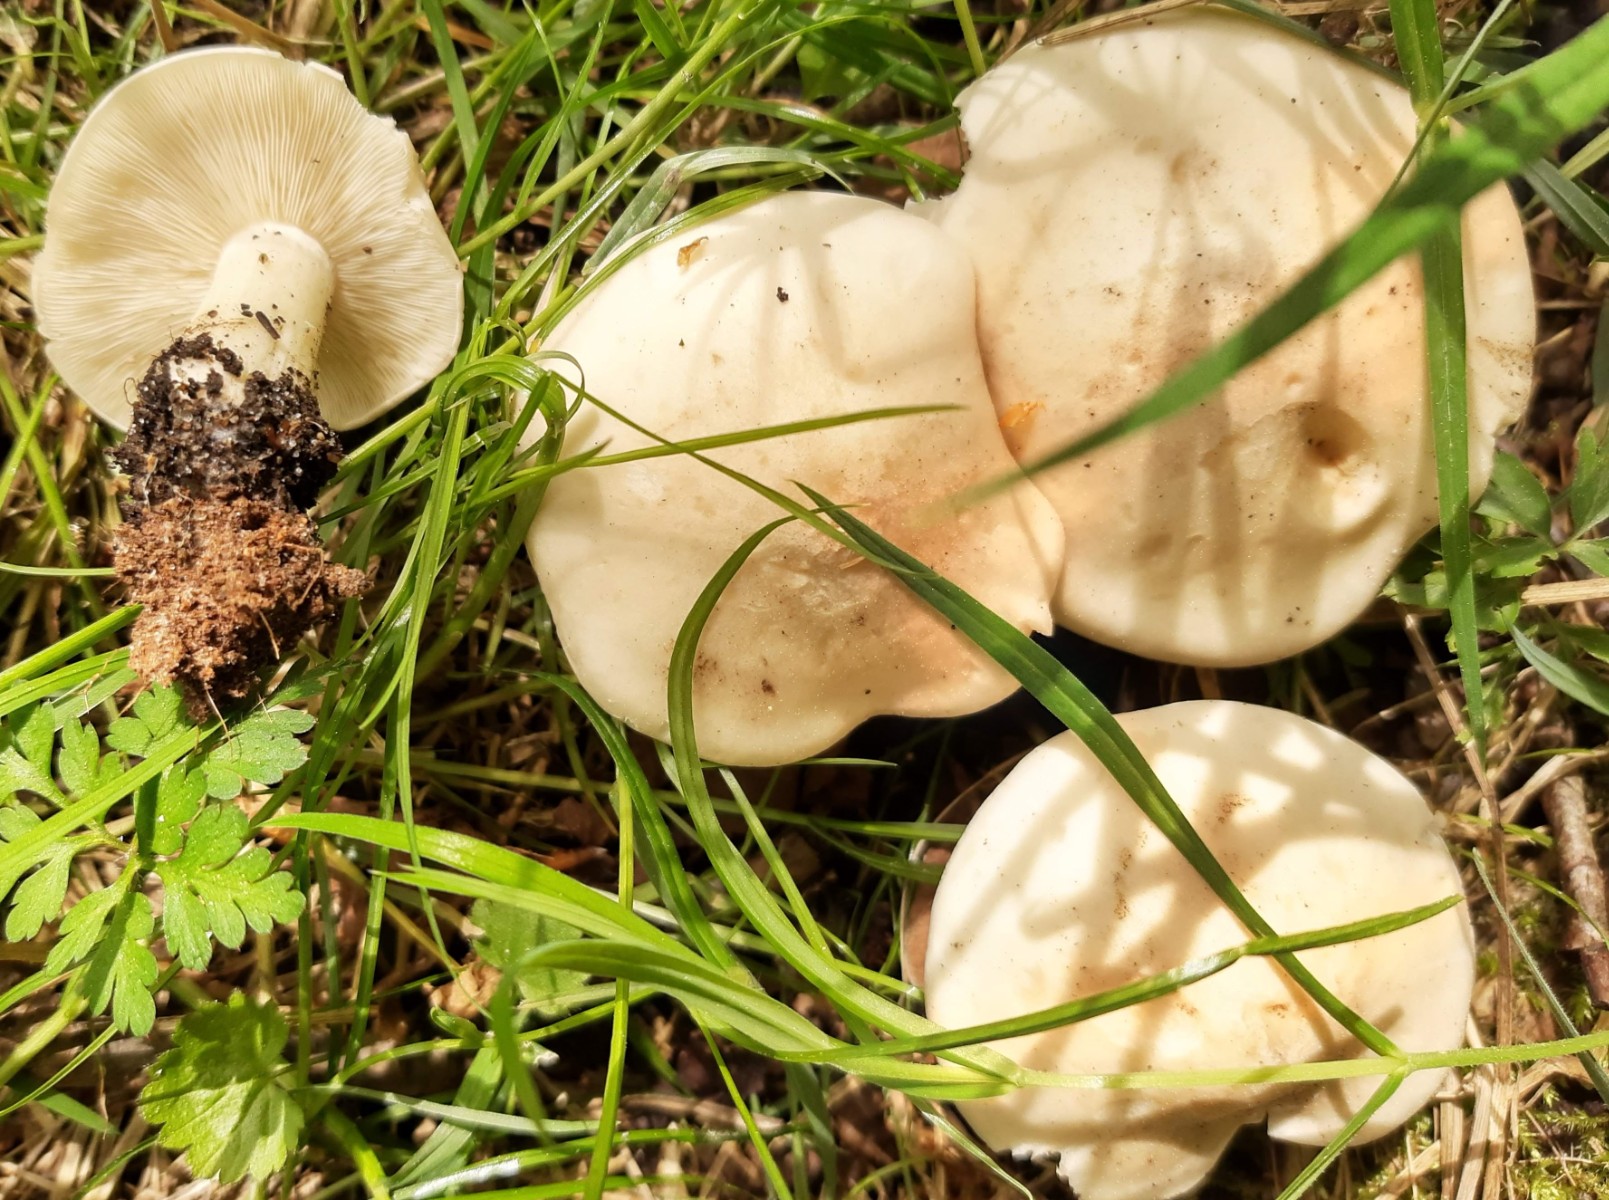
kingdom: Fungi
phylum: Basidiomycota
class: Agaricomycetes
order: Agaricales
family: Lyophyllaceae
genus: Calocybe
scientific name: Calocybe gambosa
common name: vårmusseron
